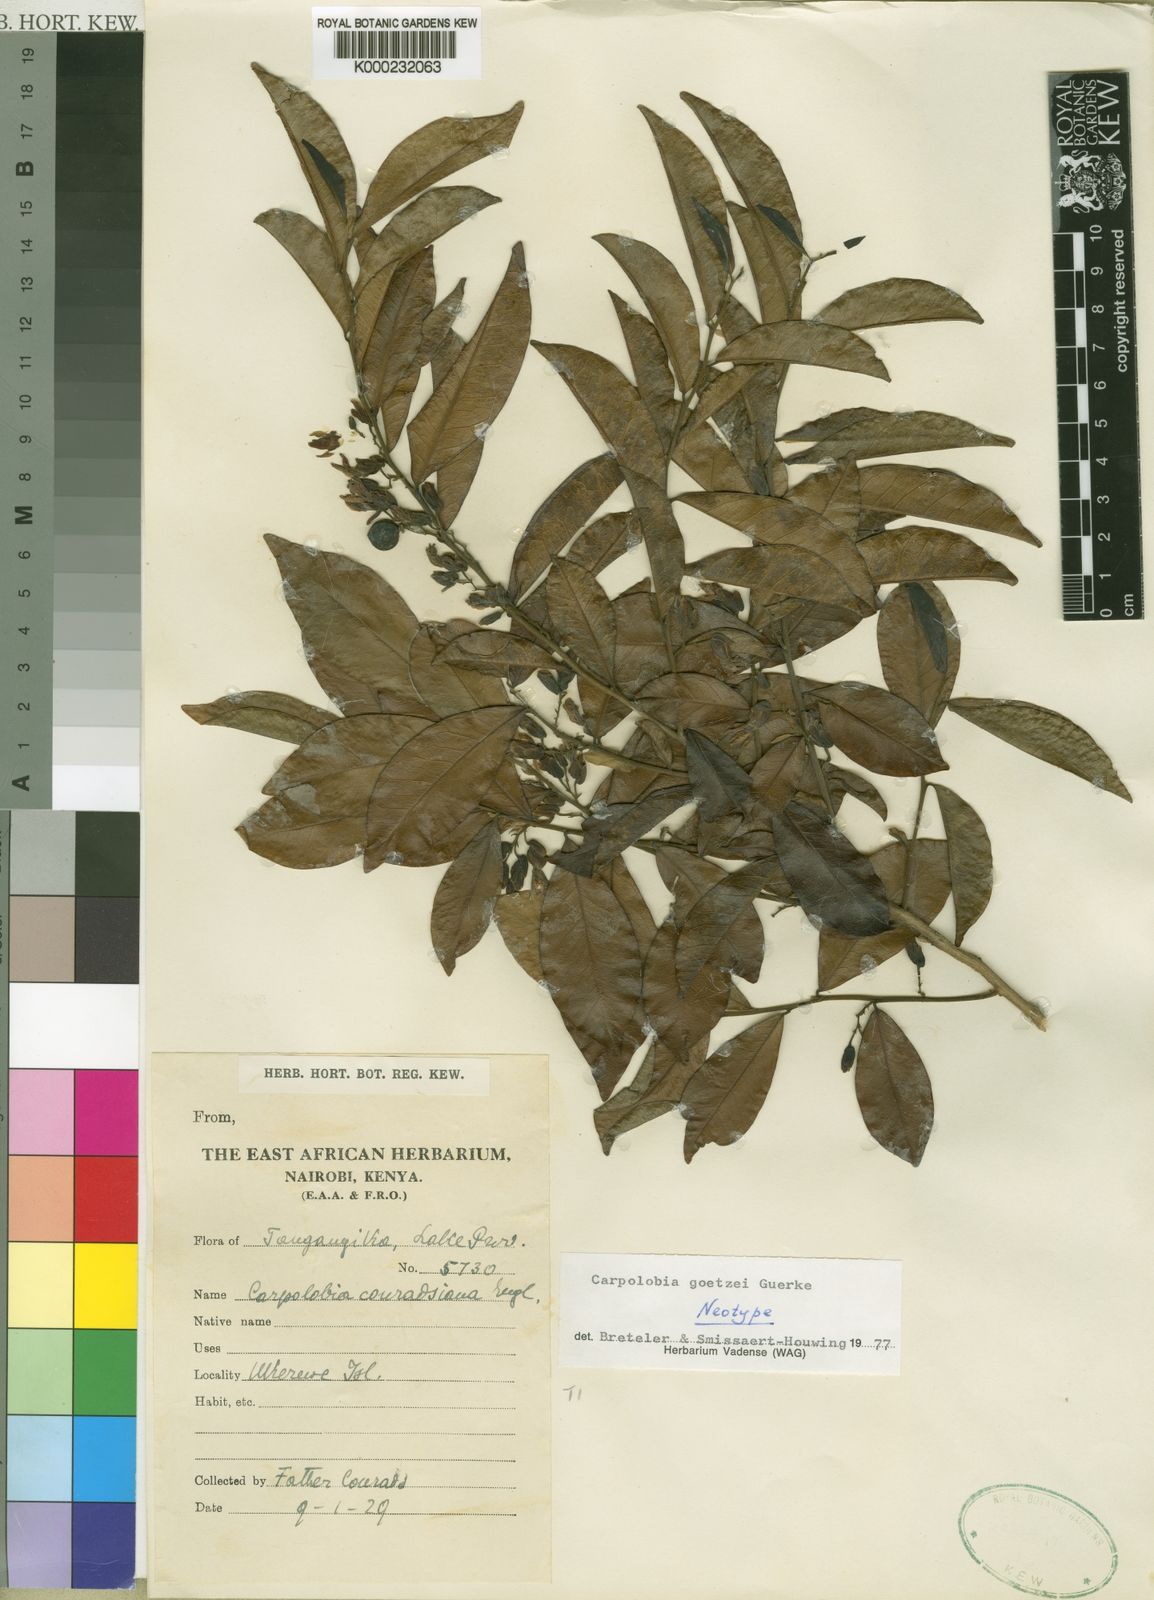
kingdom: Plantae
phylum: Tracheophyta
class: Magnoliopsida
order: Fabales
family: Polygalaceae
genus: Carpolobia
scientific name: Carpolobia
